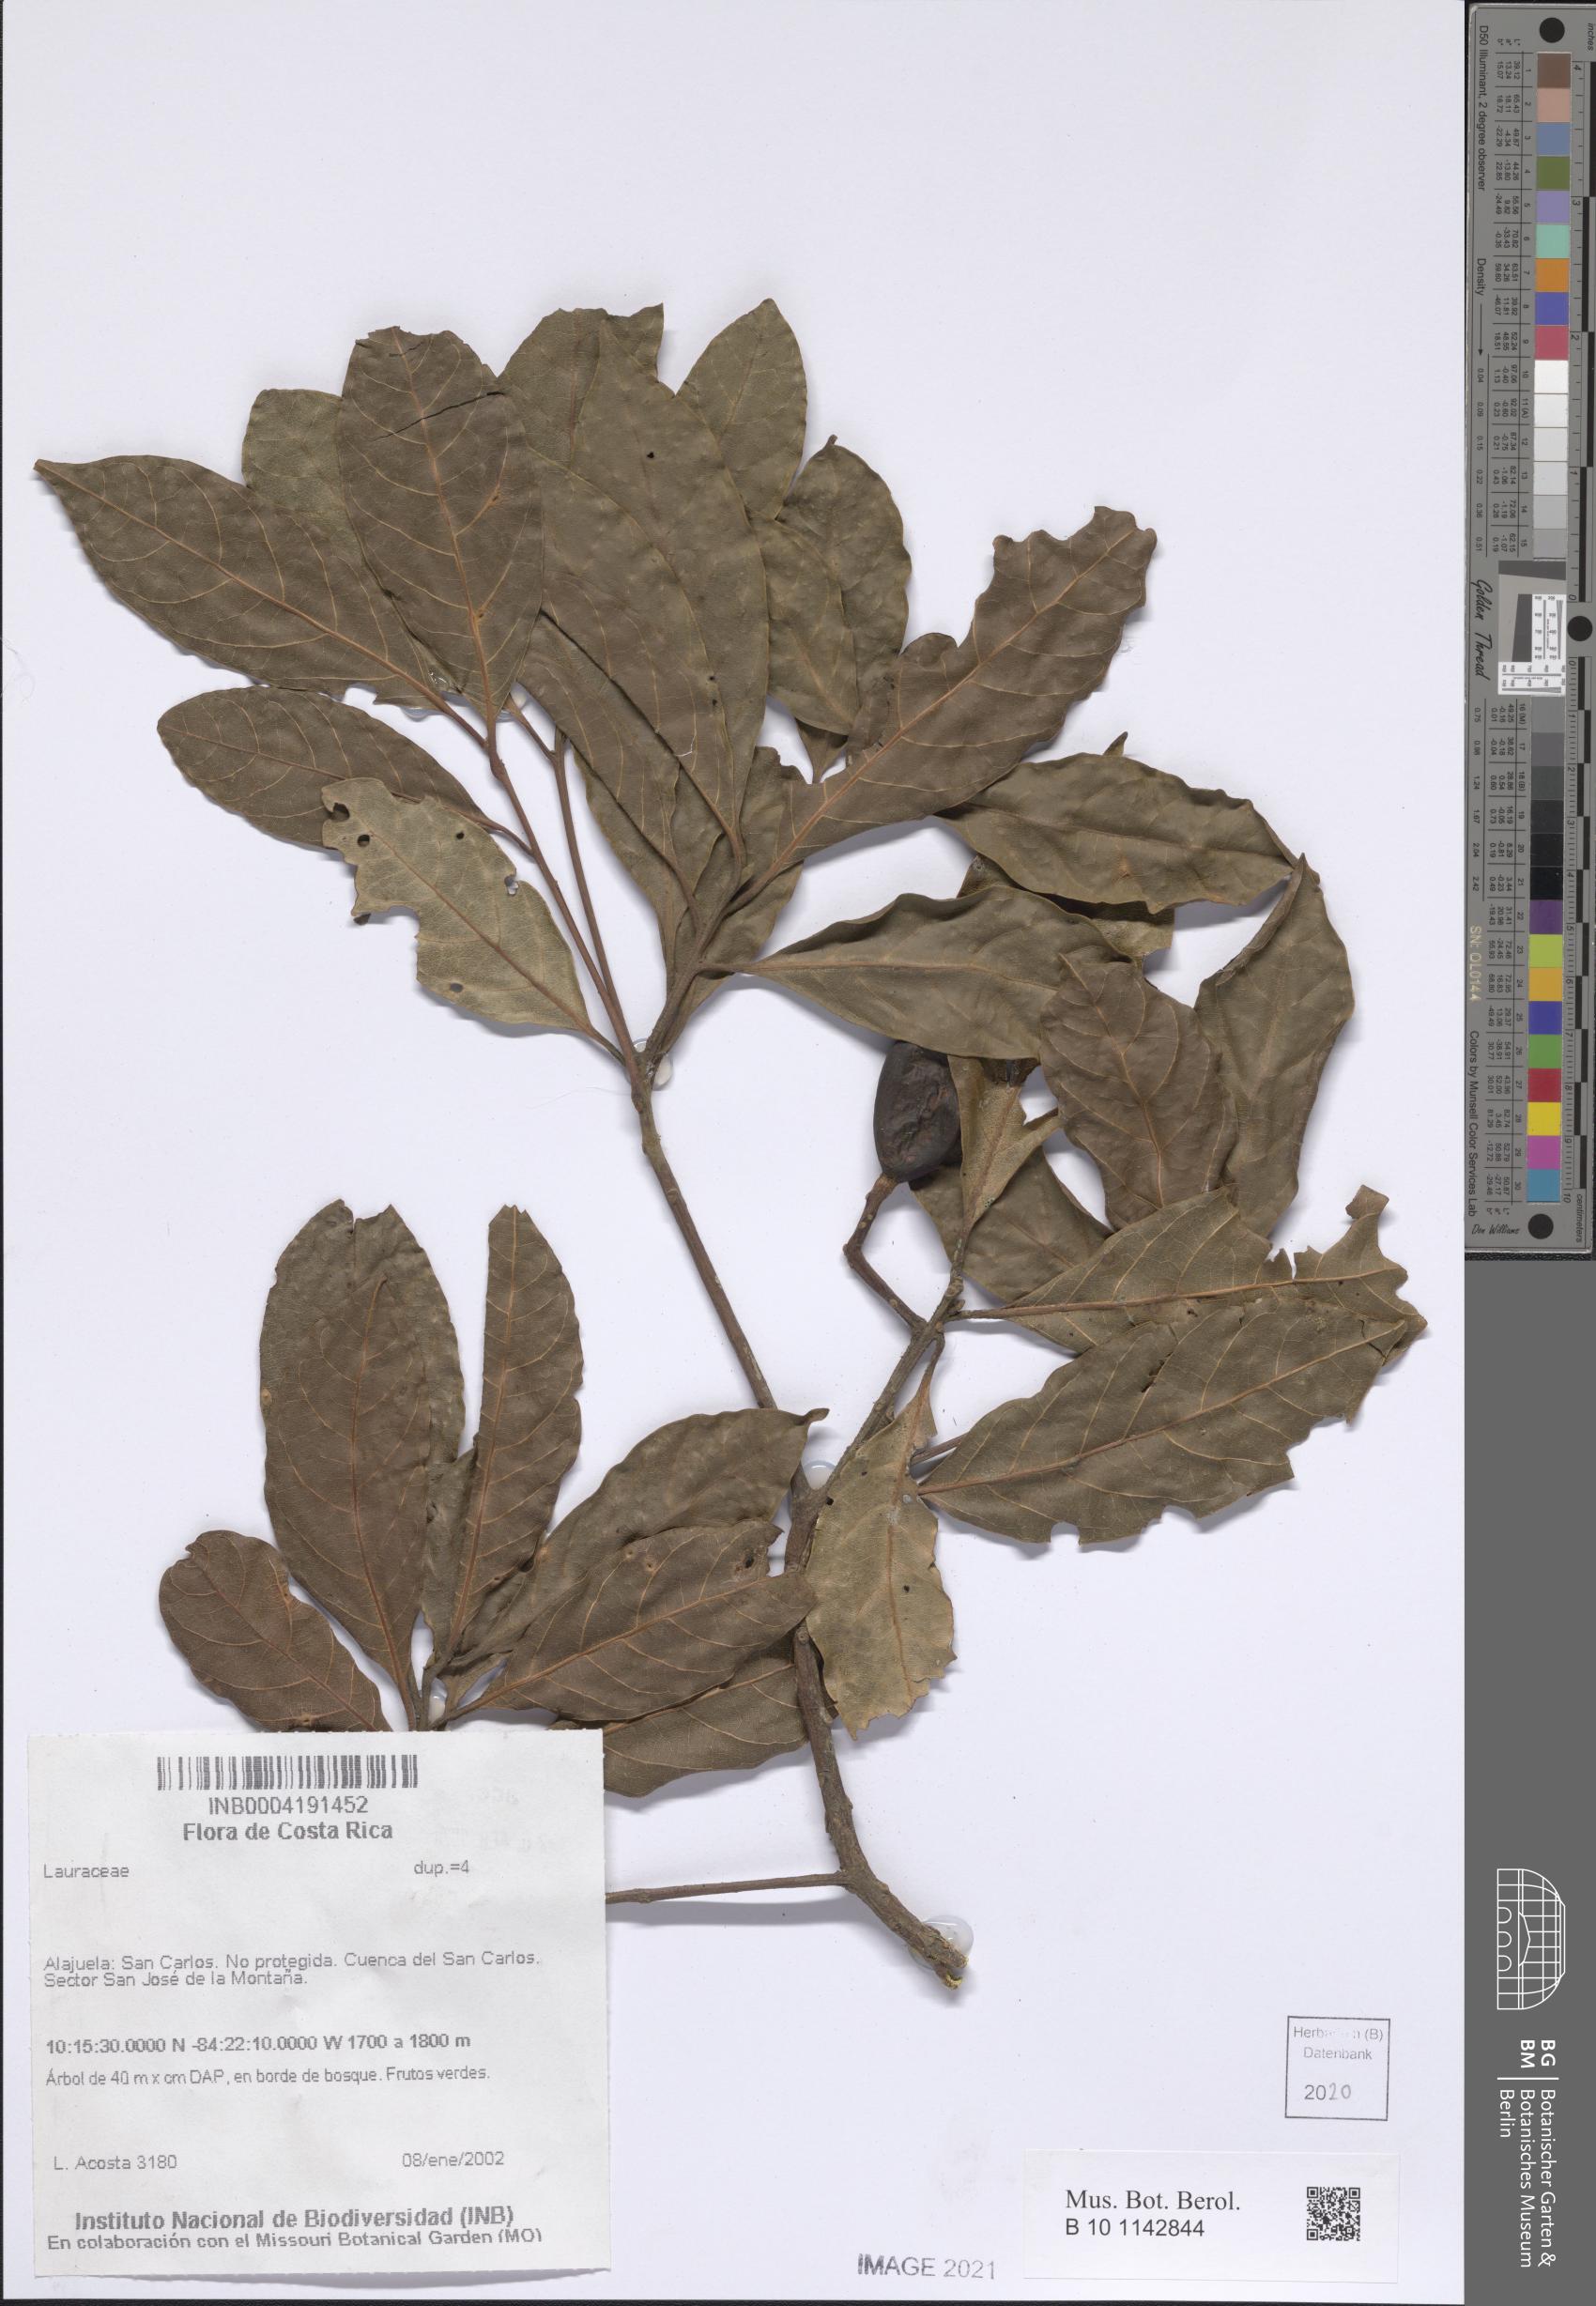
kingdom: Plantae
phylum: Tracheophyta
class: Magnoliopsida
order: Laurales
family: Lauraceae
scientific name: Lauraceae
